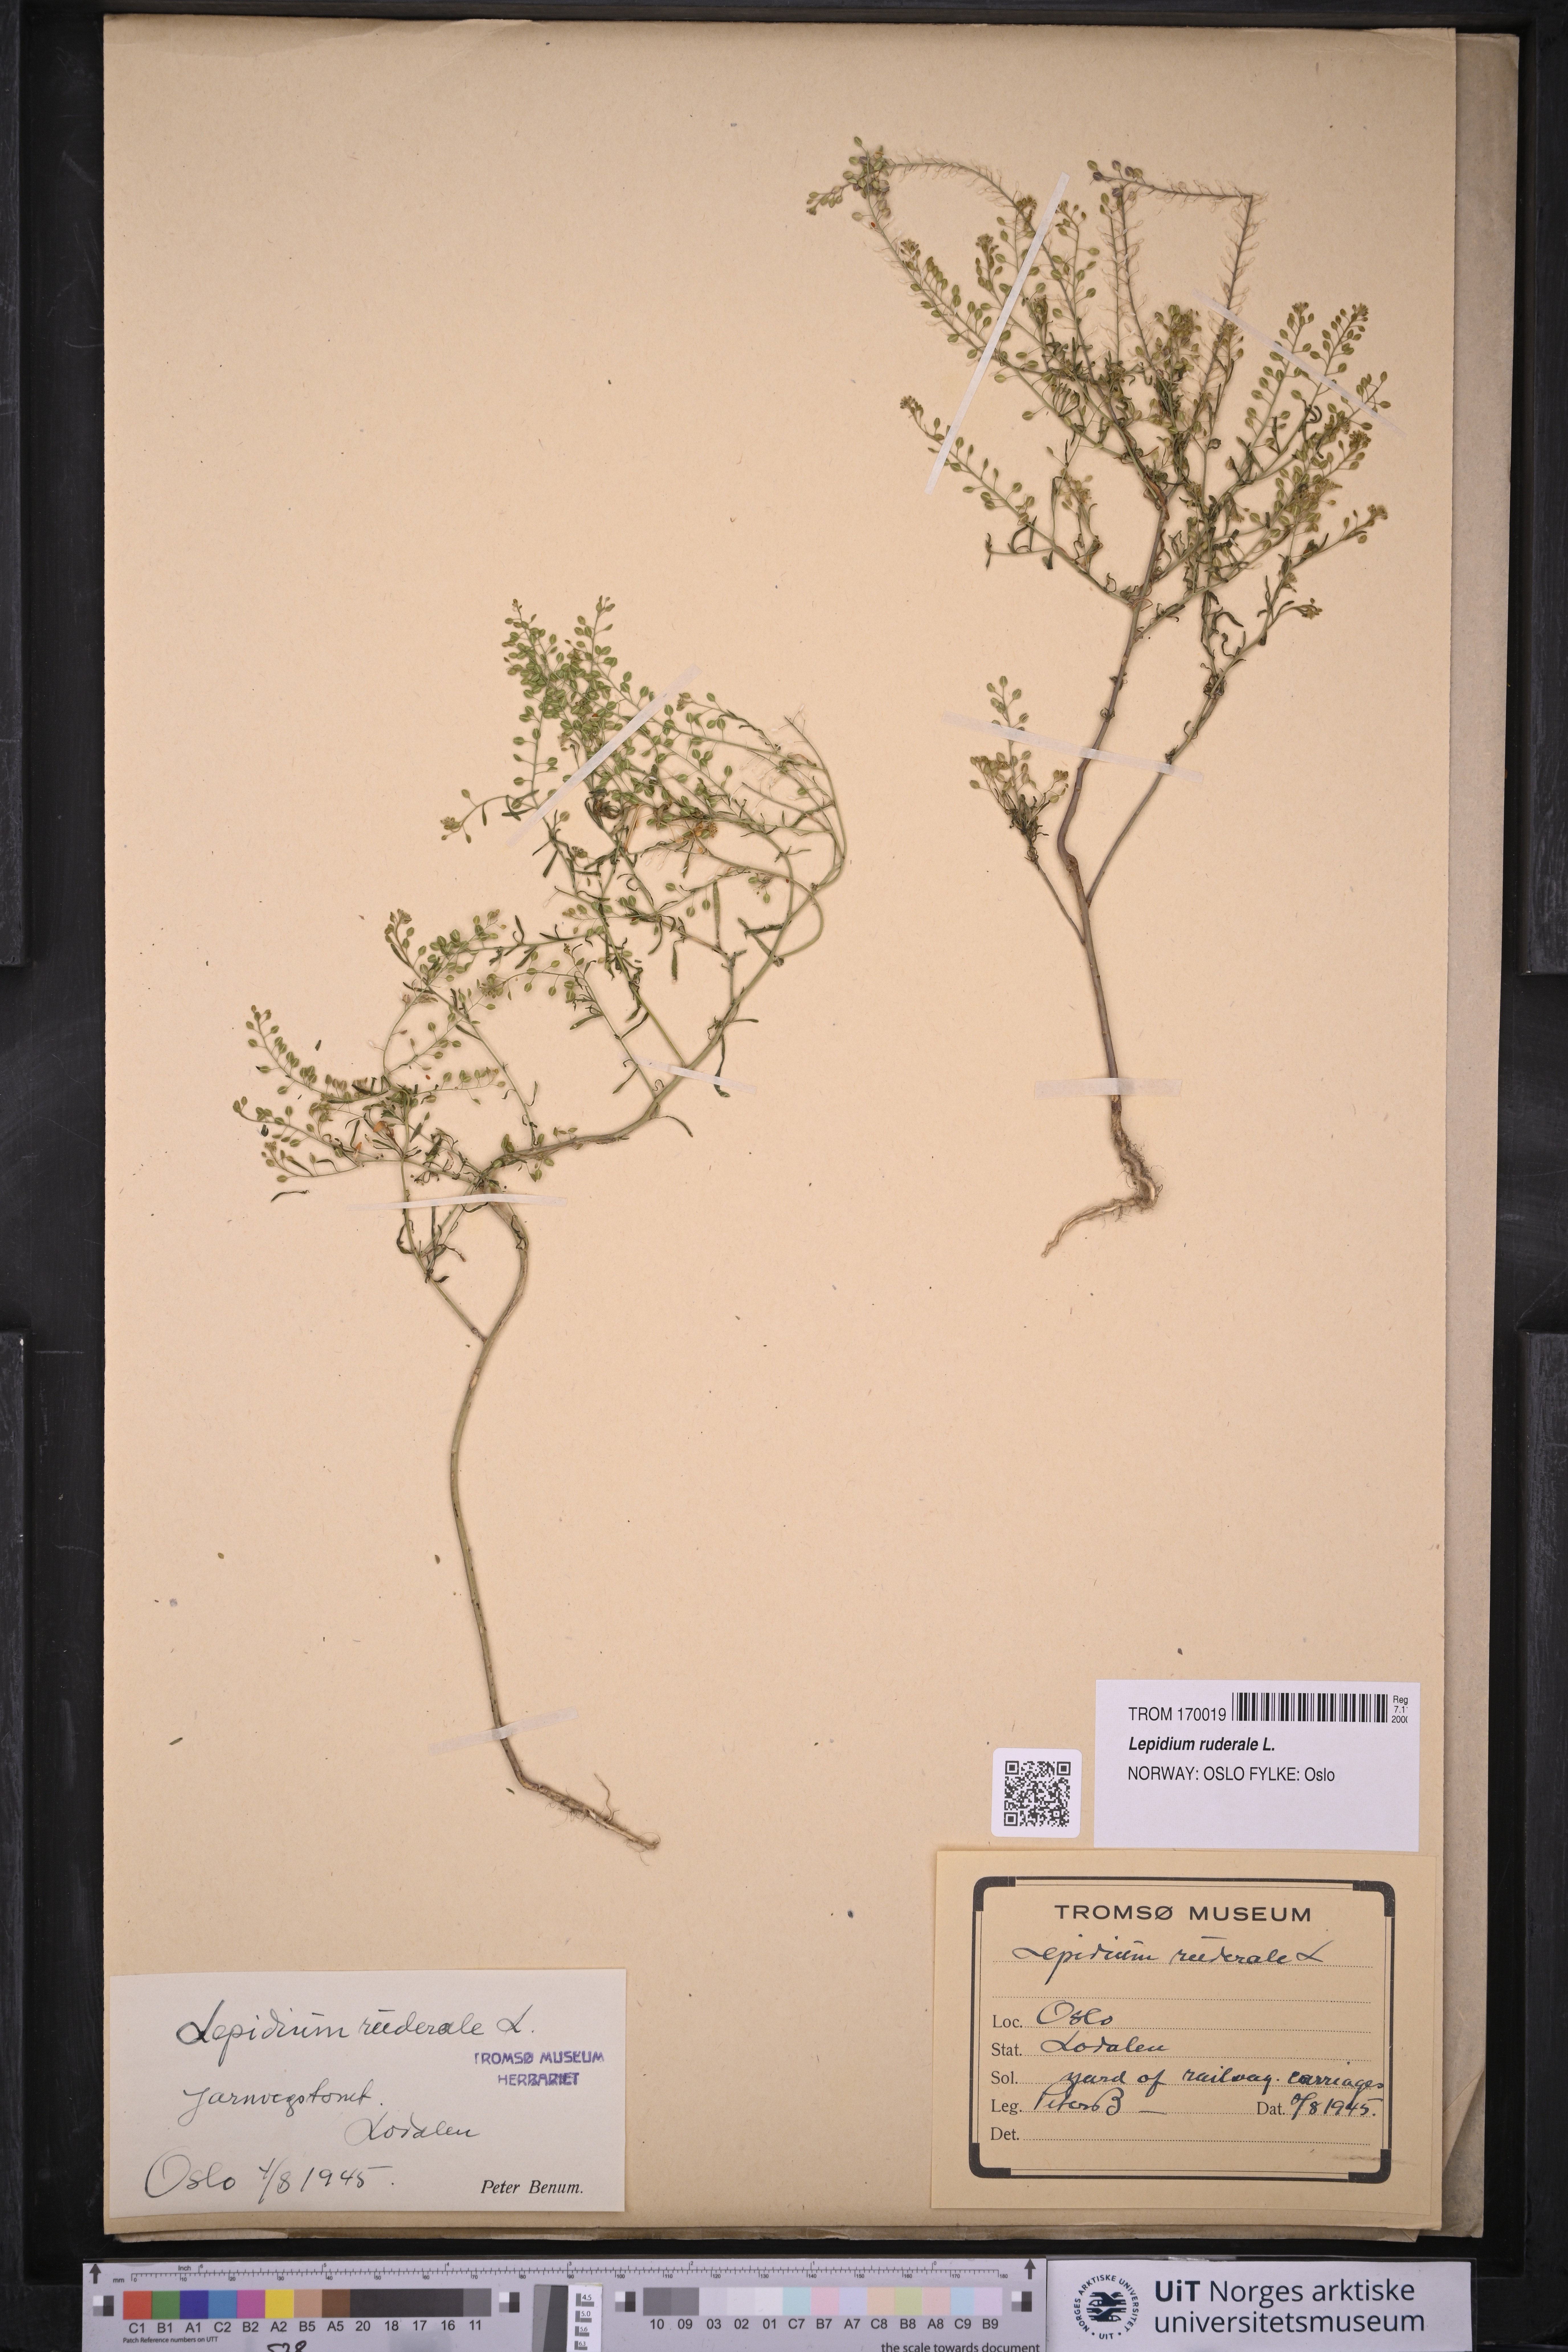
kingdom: Plantae
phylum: Tracheophyta
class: Magnoliopsida
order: Brassicales
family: Brassicaceae
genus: Lepidium
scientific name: Lepidium ruderale
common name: Narrow-leaved pepperwort
